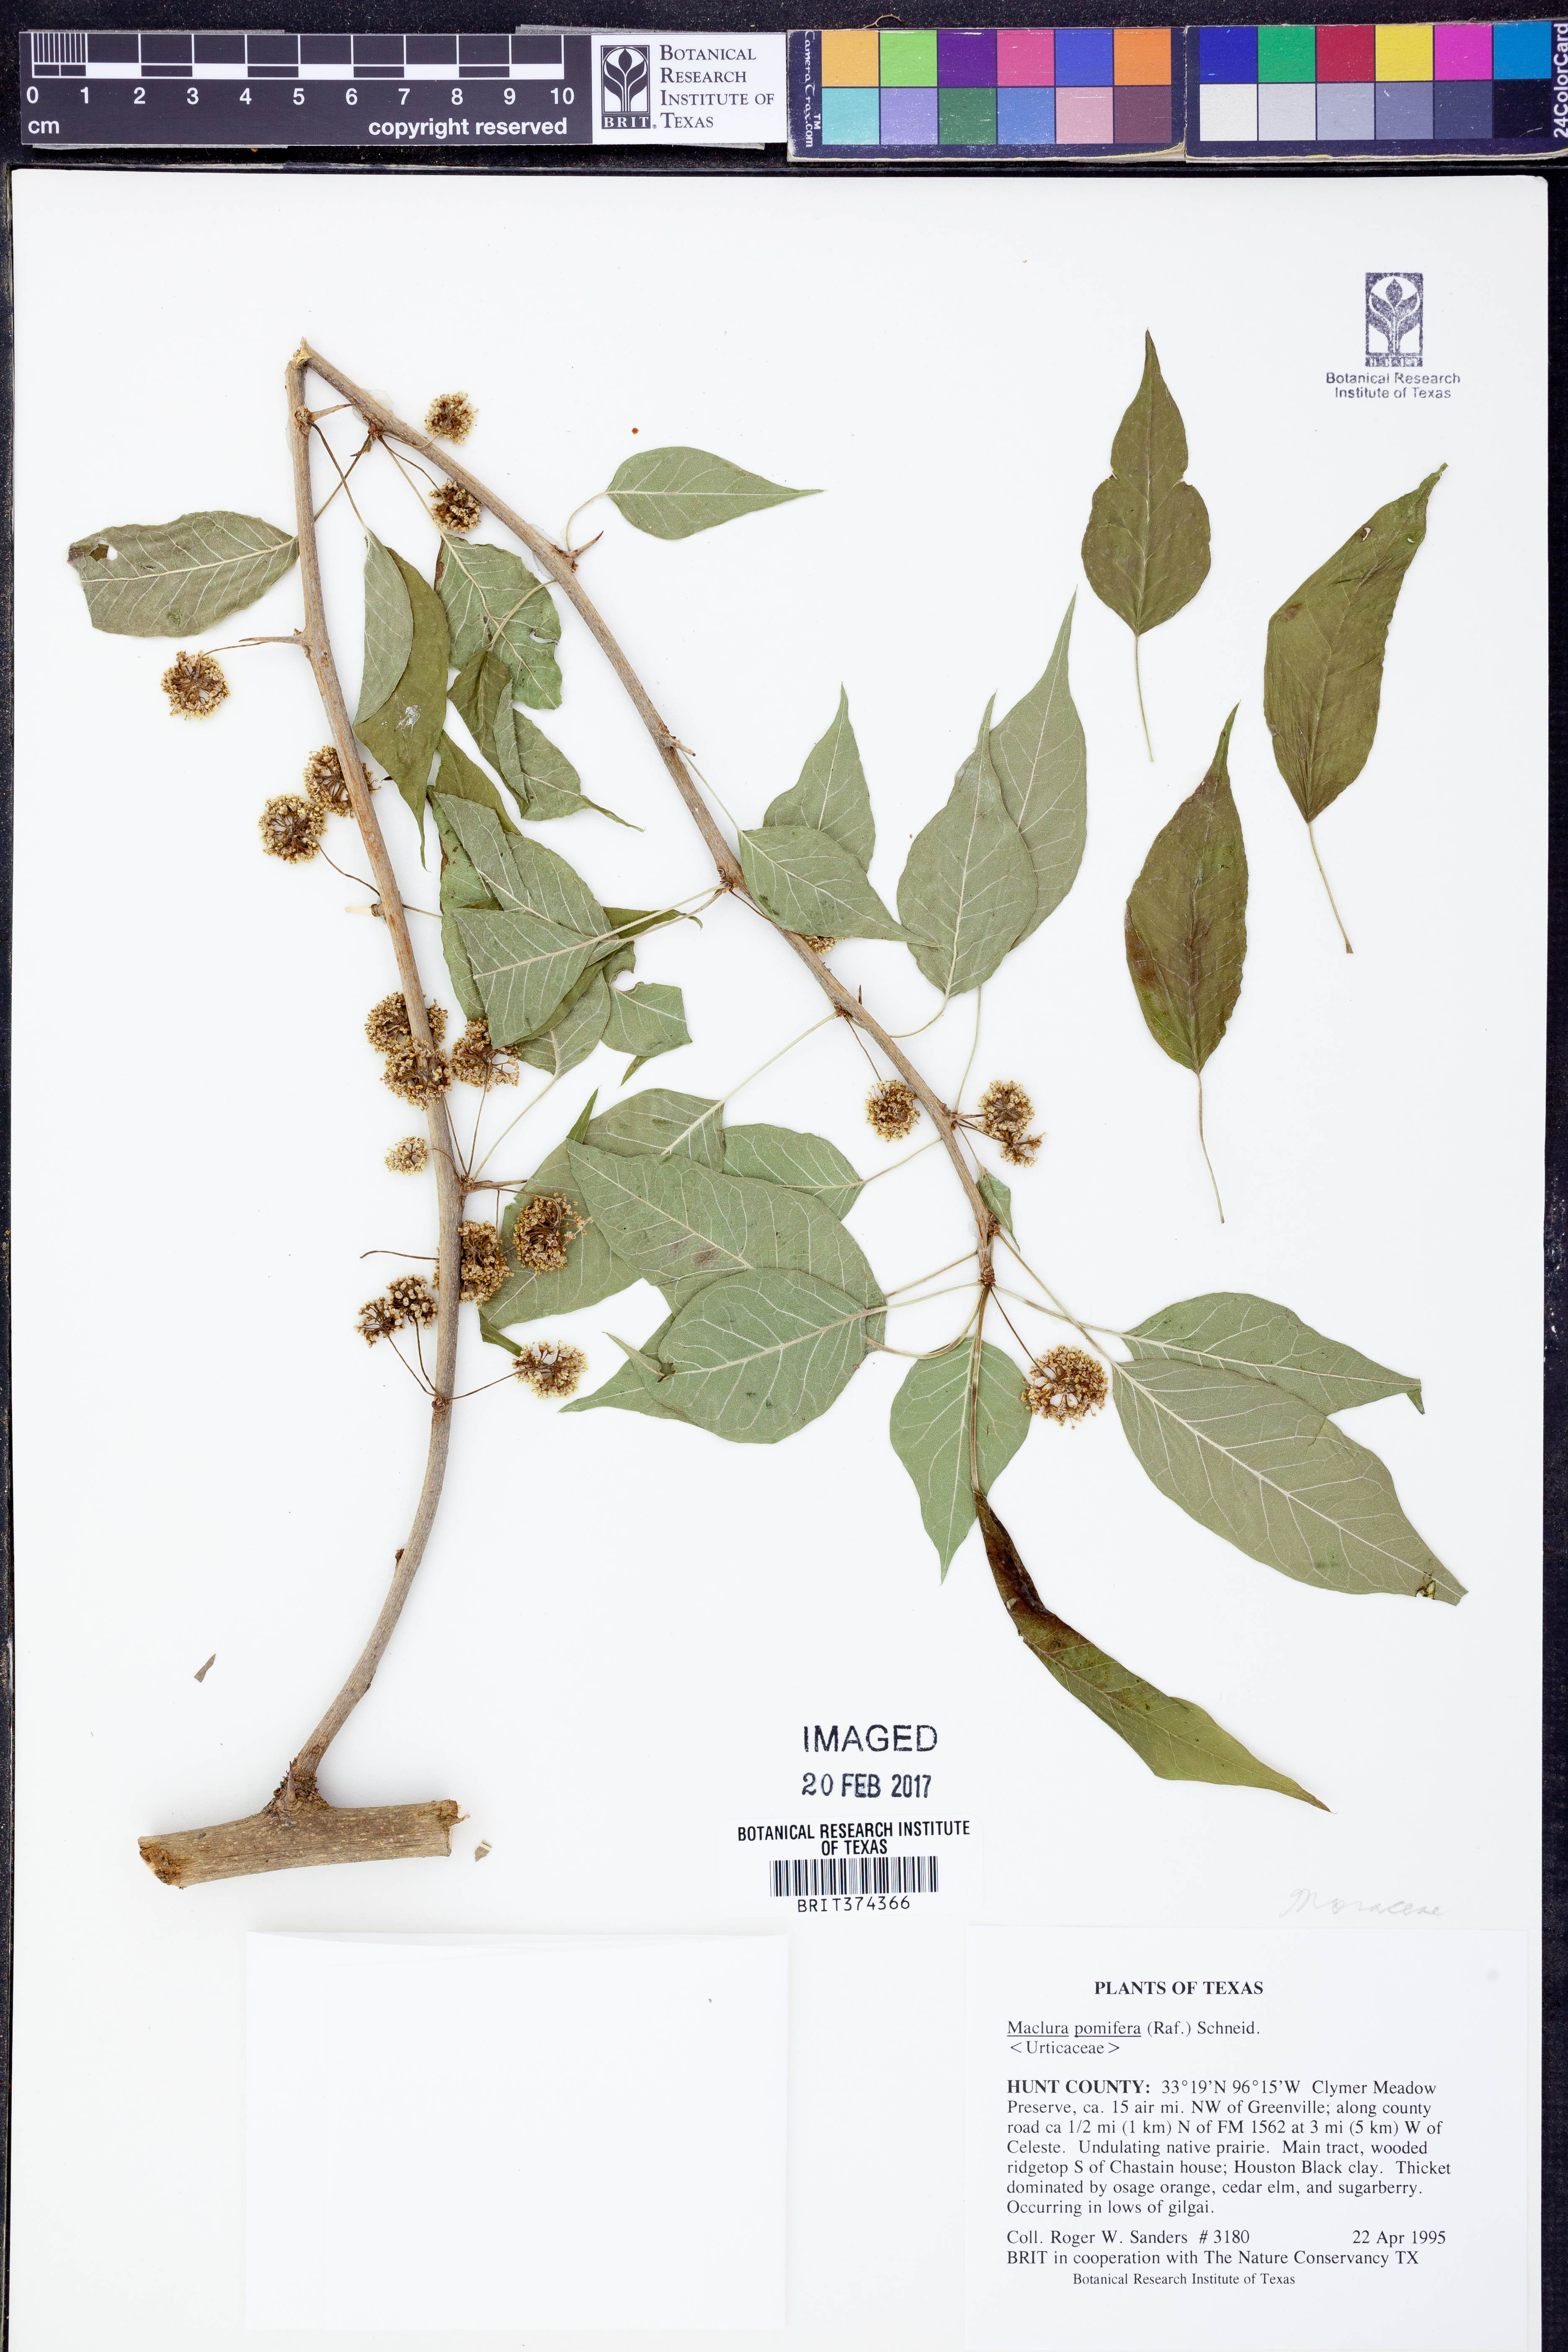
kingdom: Plantae
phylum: Tracheophyta
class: Magnoliopsida
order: Rosales
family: Moraceae
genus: Maclura
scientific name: Maclura pomifera
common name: Osage-orange
